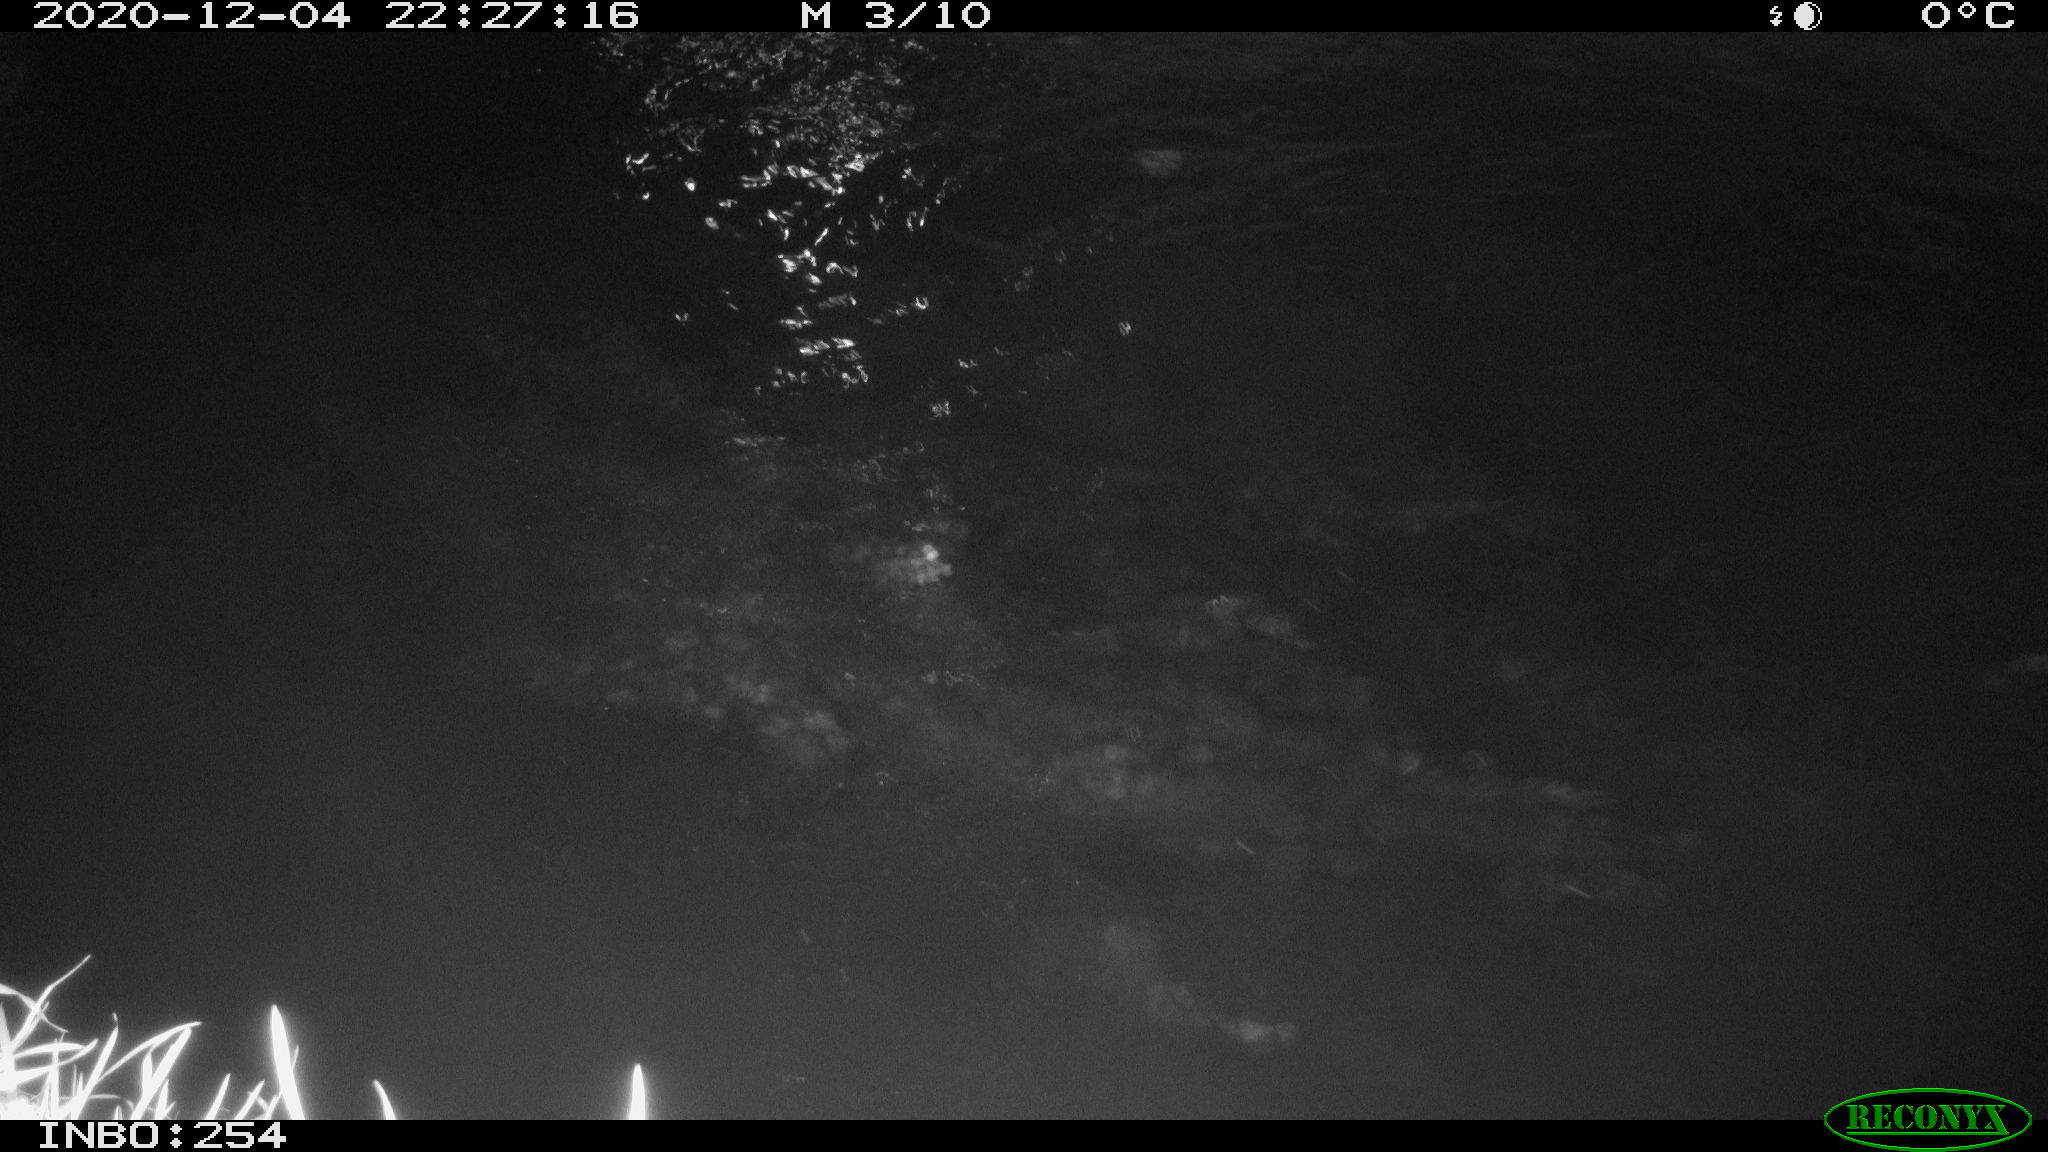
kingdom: Animalia
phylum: Chordata
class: Aves
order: Anseriformes
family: Anatidae
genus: Anas
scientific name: Anas platyrhynchos
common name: Mallard
